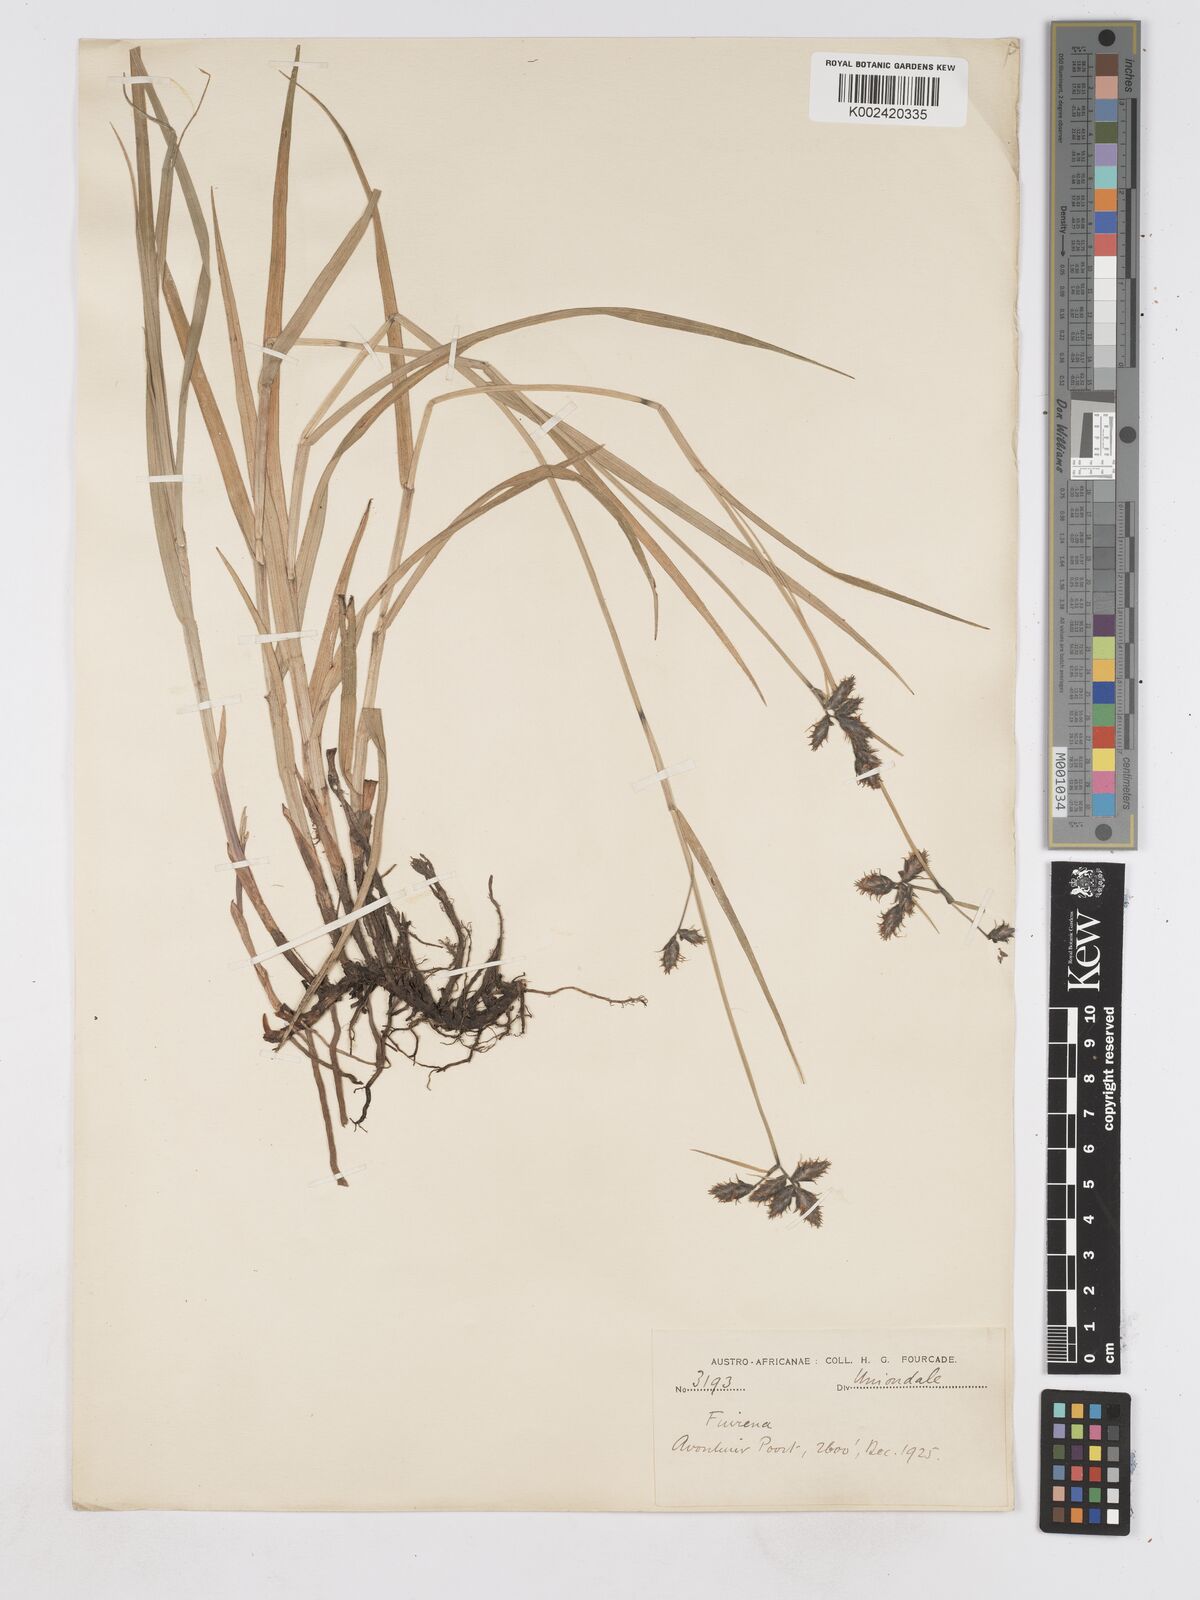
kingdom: Plantae
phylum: Tracheophyta
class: Liliopsida
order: Poales
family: Cyperaceae
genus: Fuirena
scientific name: Fuirena
